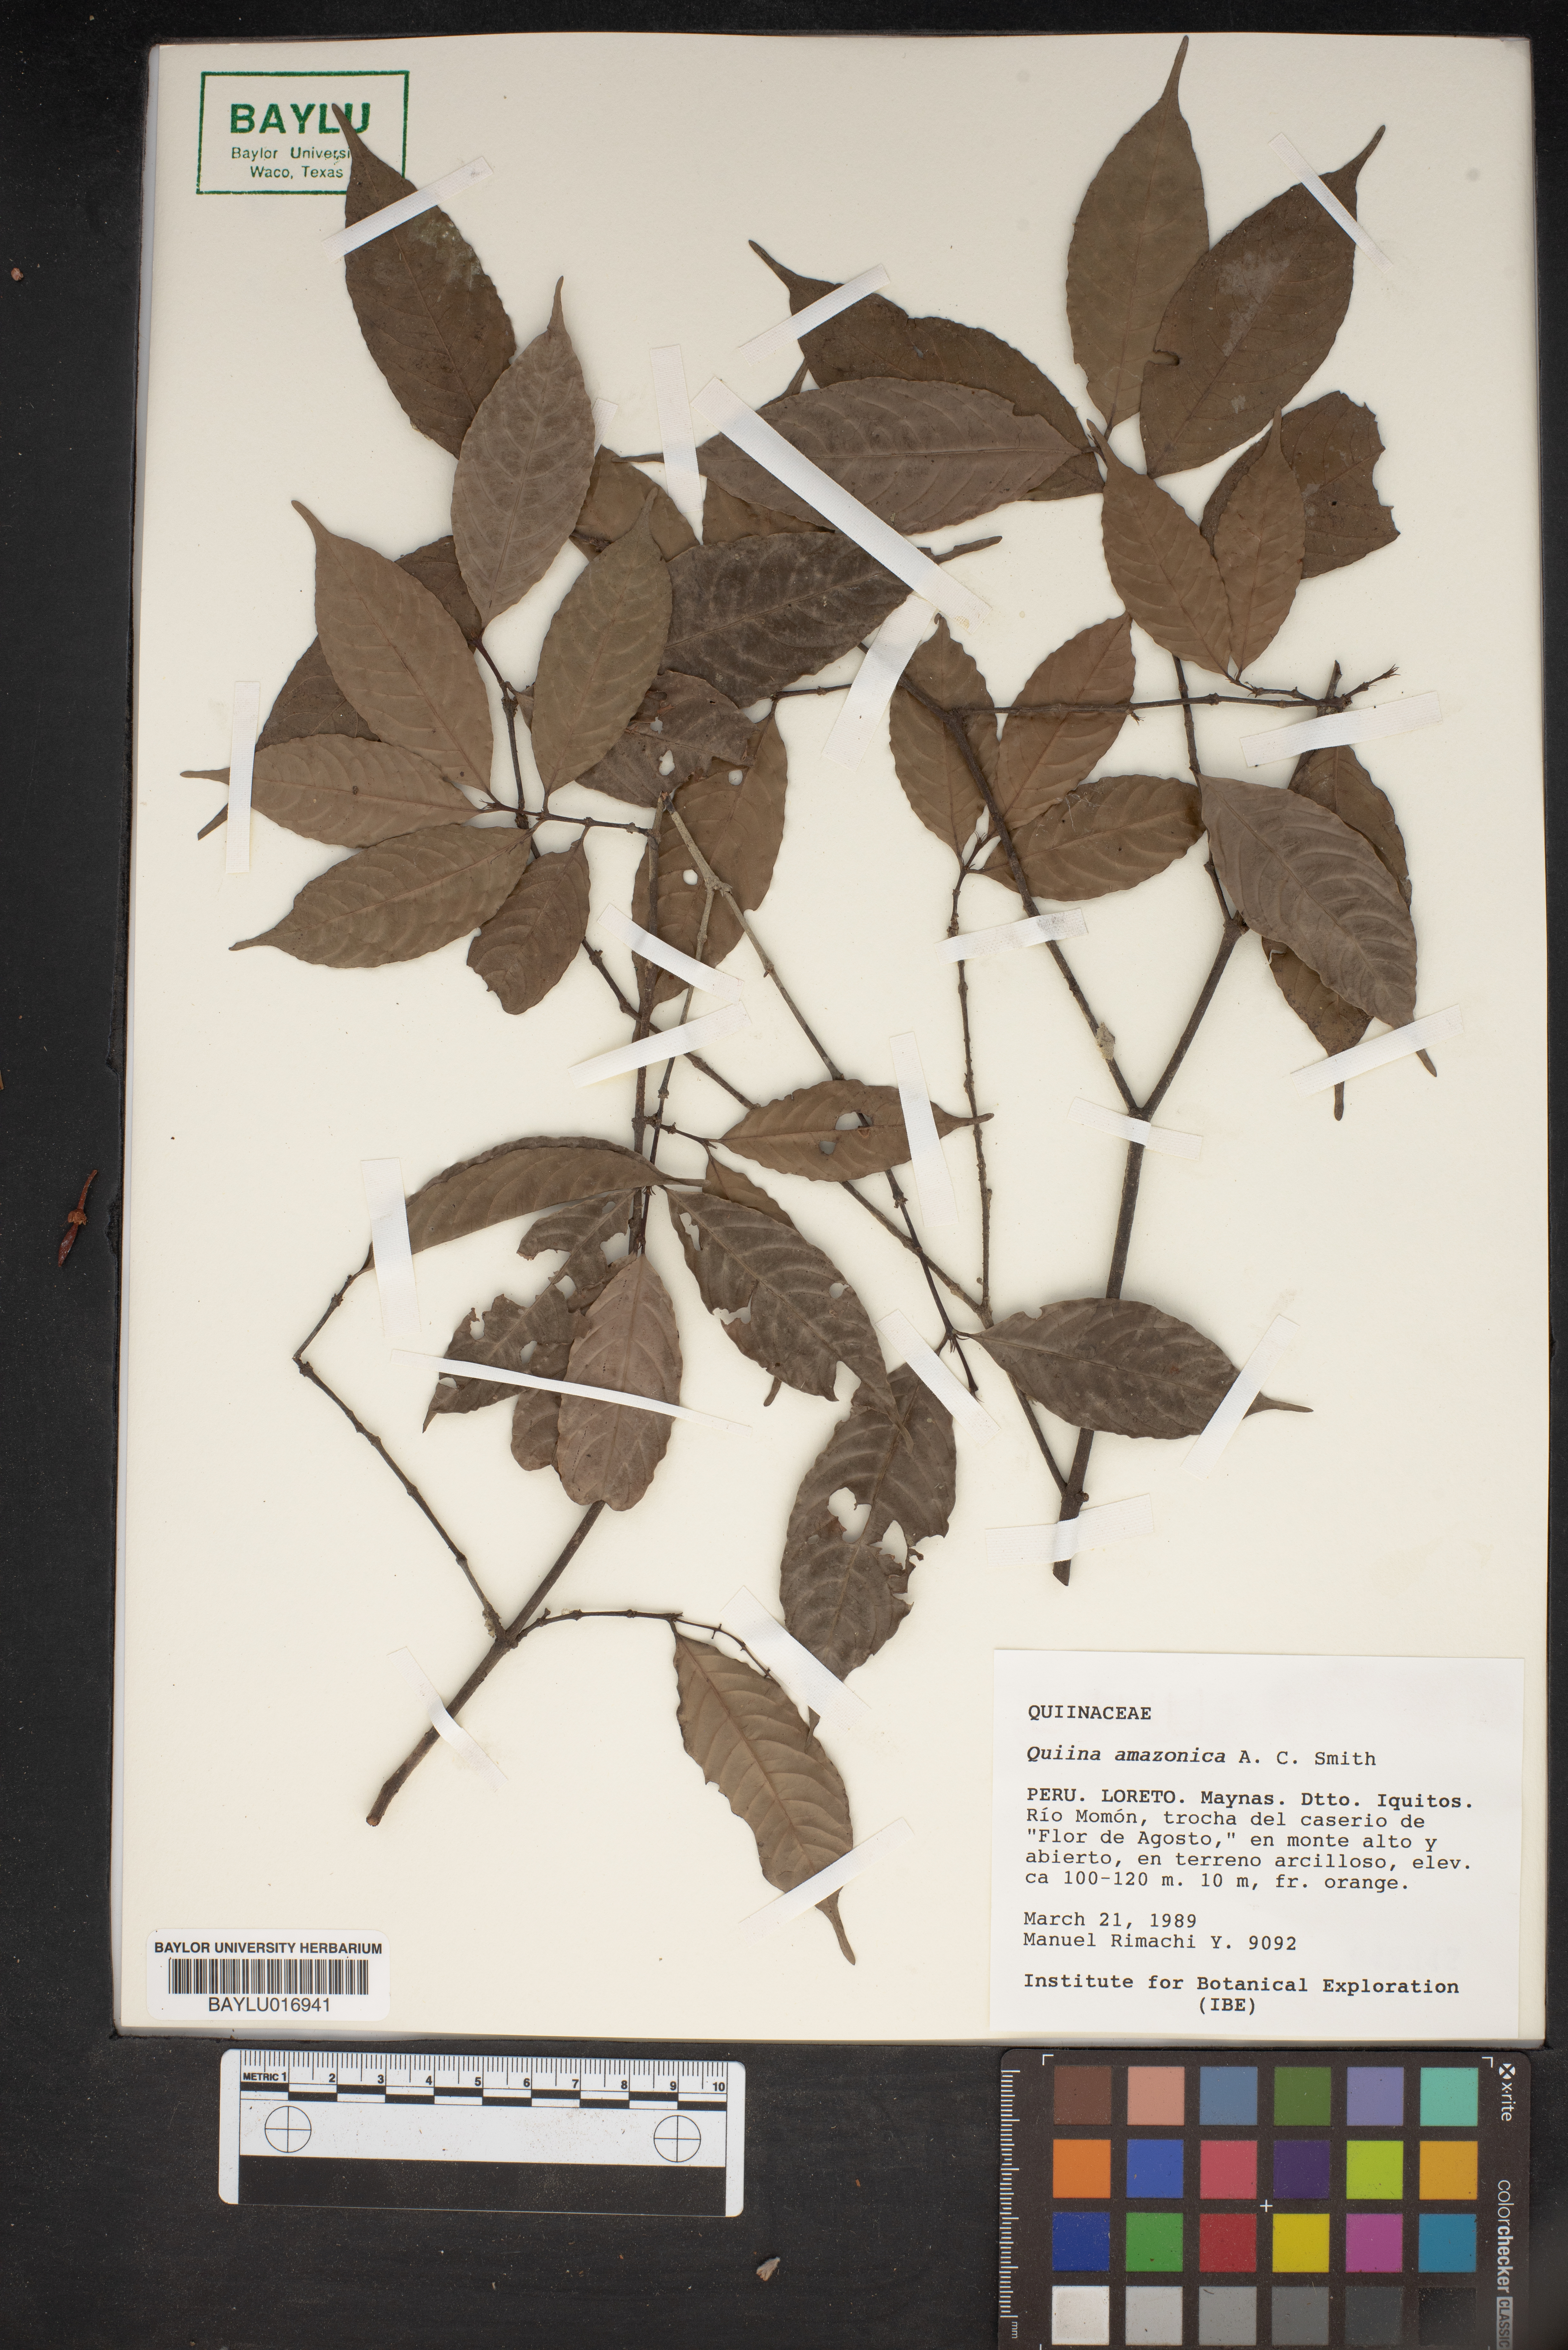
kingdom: Plantae
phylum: Tracheophyta
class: Magnoliopsida
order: Malpighiales
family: Quiinaceae
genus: Quiina
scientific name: Quiina amazonica
